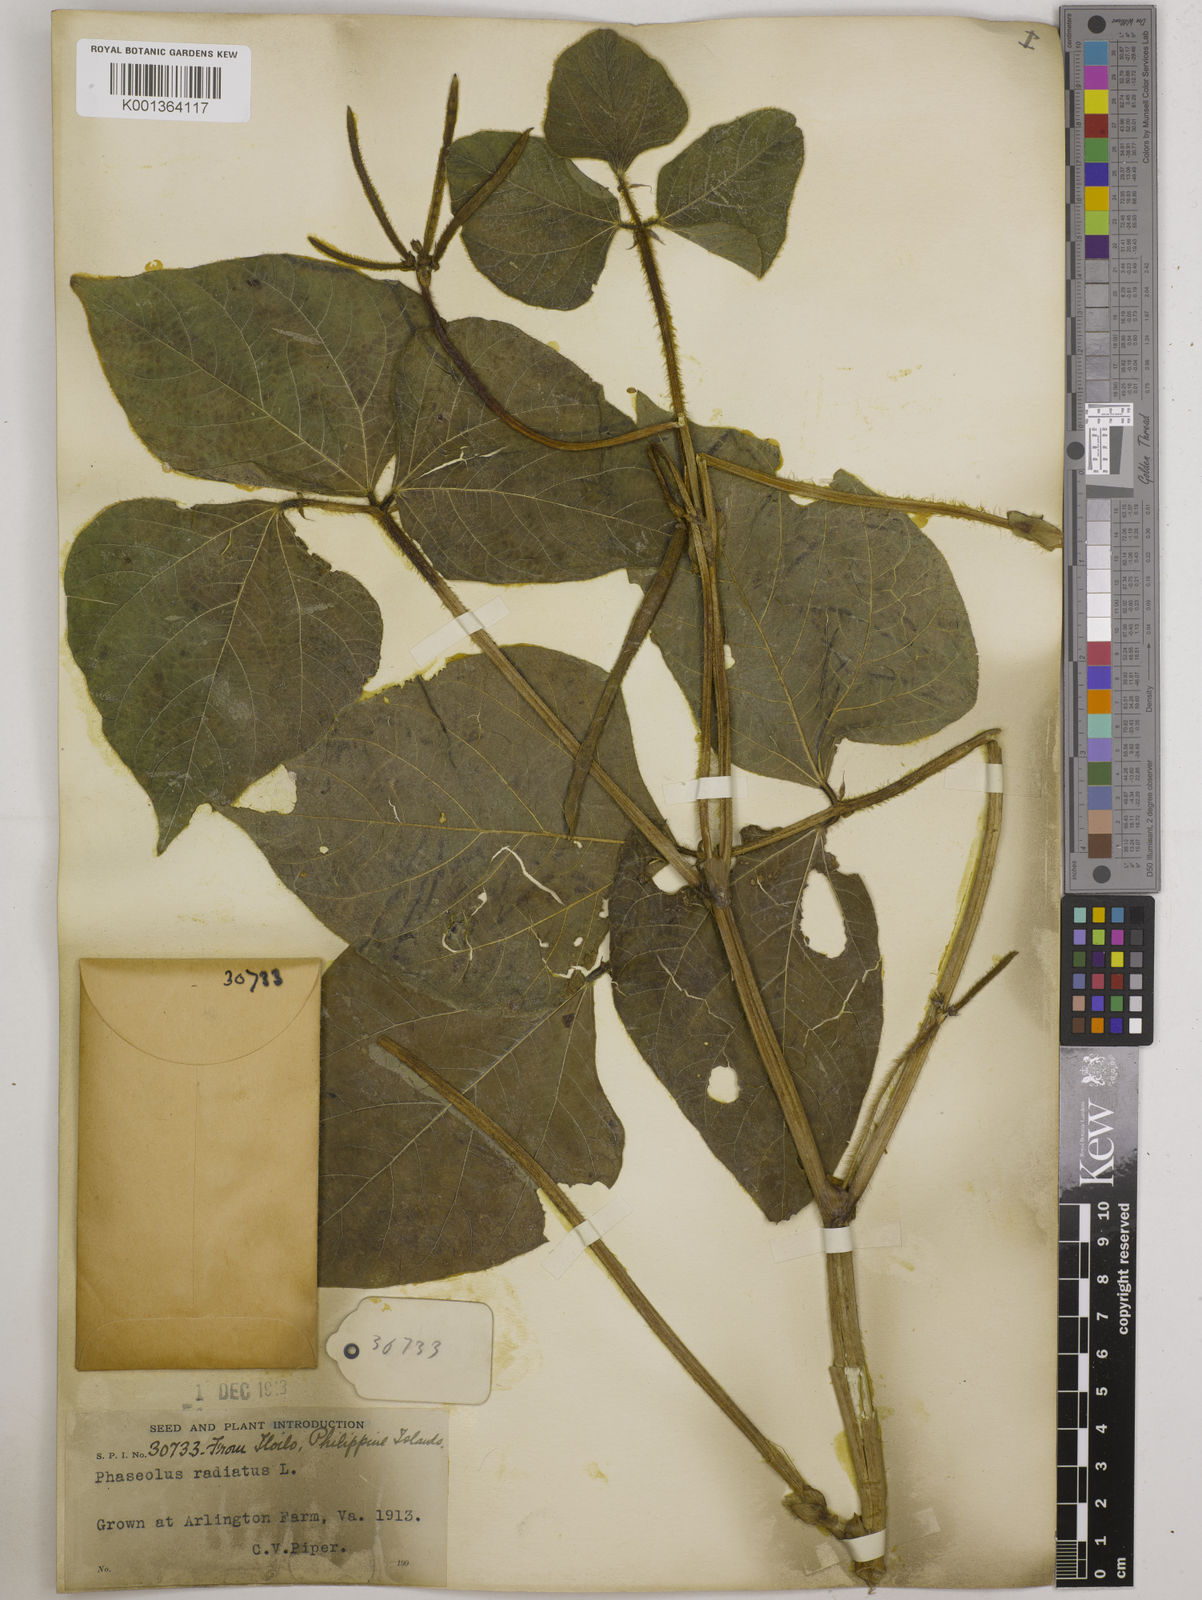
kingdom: Plantae
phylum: Tracheophyta
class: Magnoliopsida
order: Fabales
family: Fabaceae
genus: Vigna
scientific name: Vigna radiata
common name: Mung-bean
